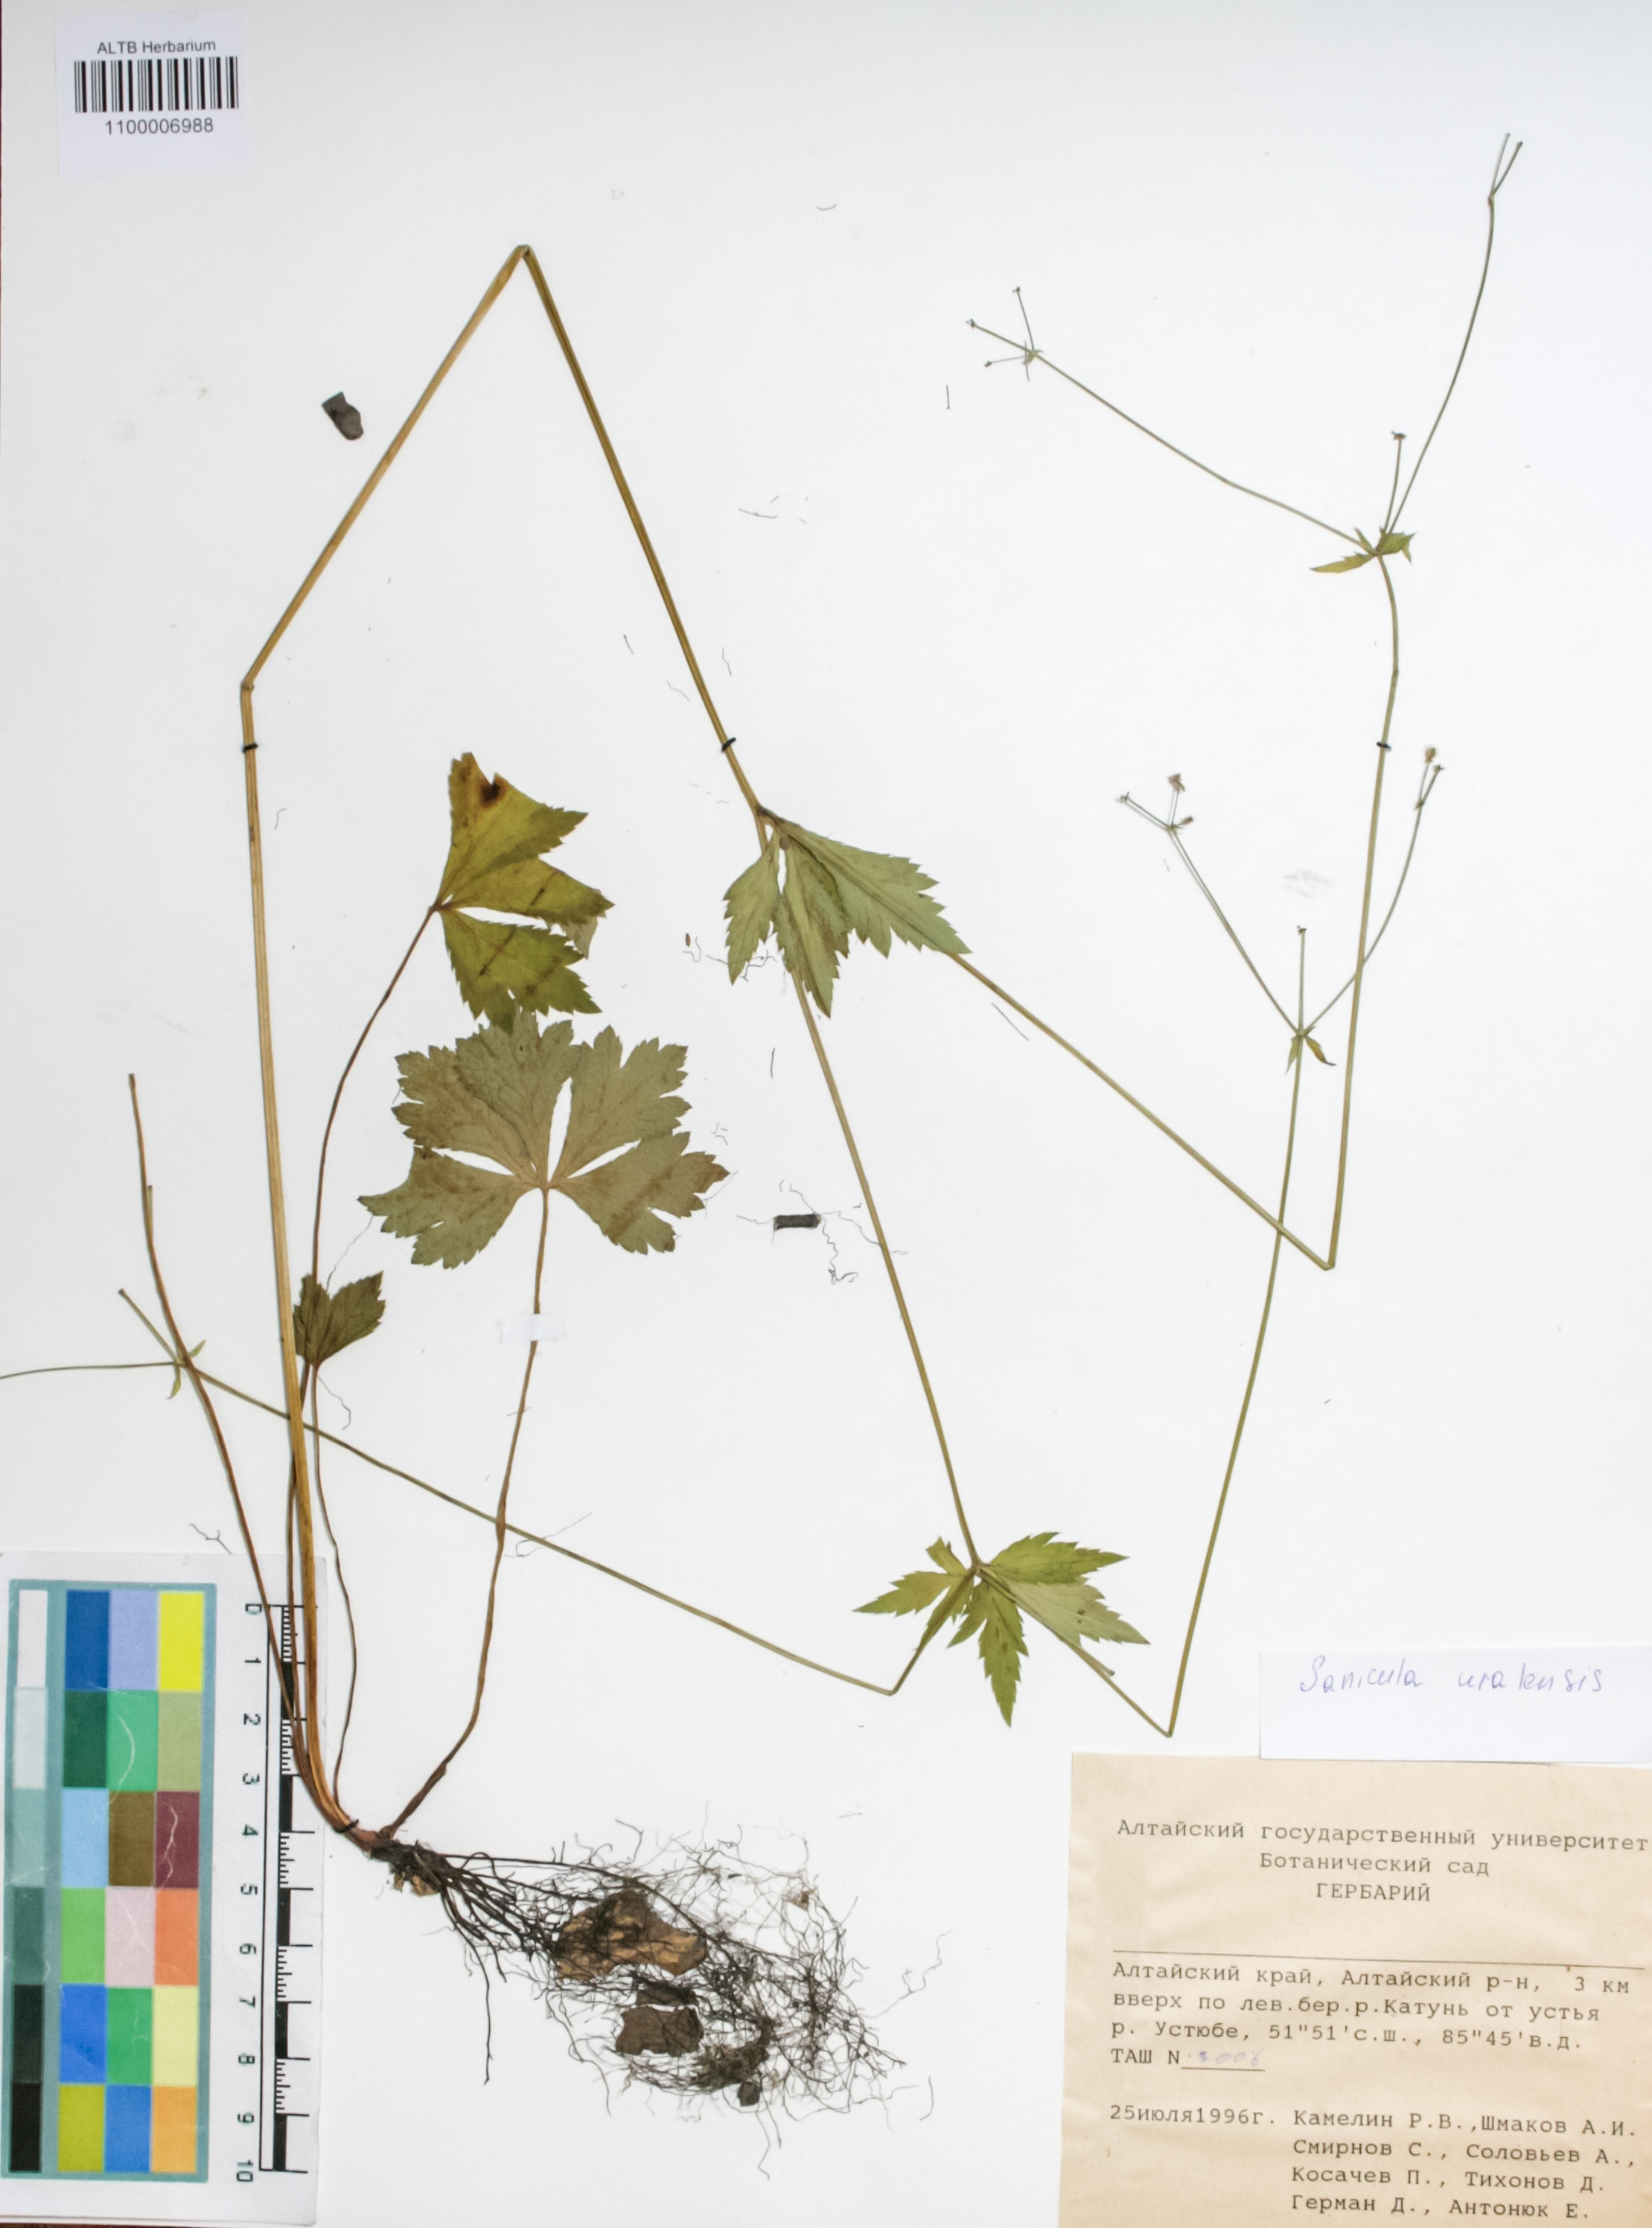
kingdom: Plantae
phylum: Tracheophyta
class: Magnoliopsida
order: Apiales
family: Apiaceae
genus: Sanicula
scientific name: Sanicula giraldii
